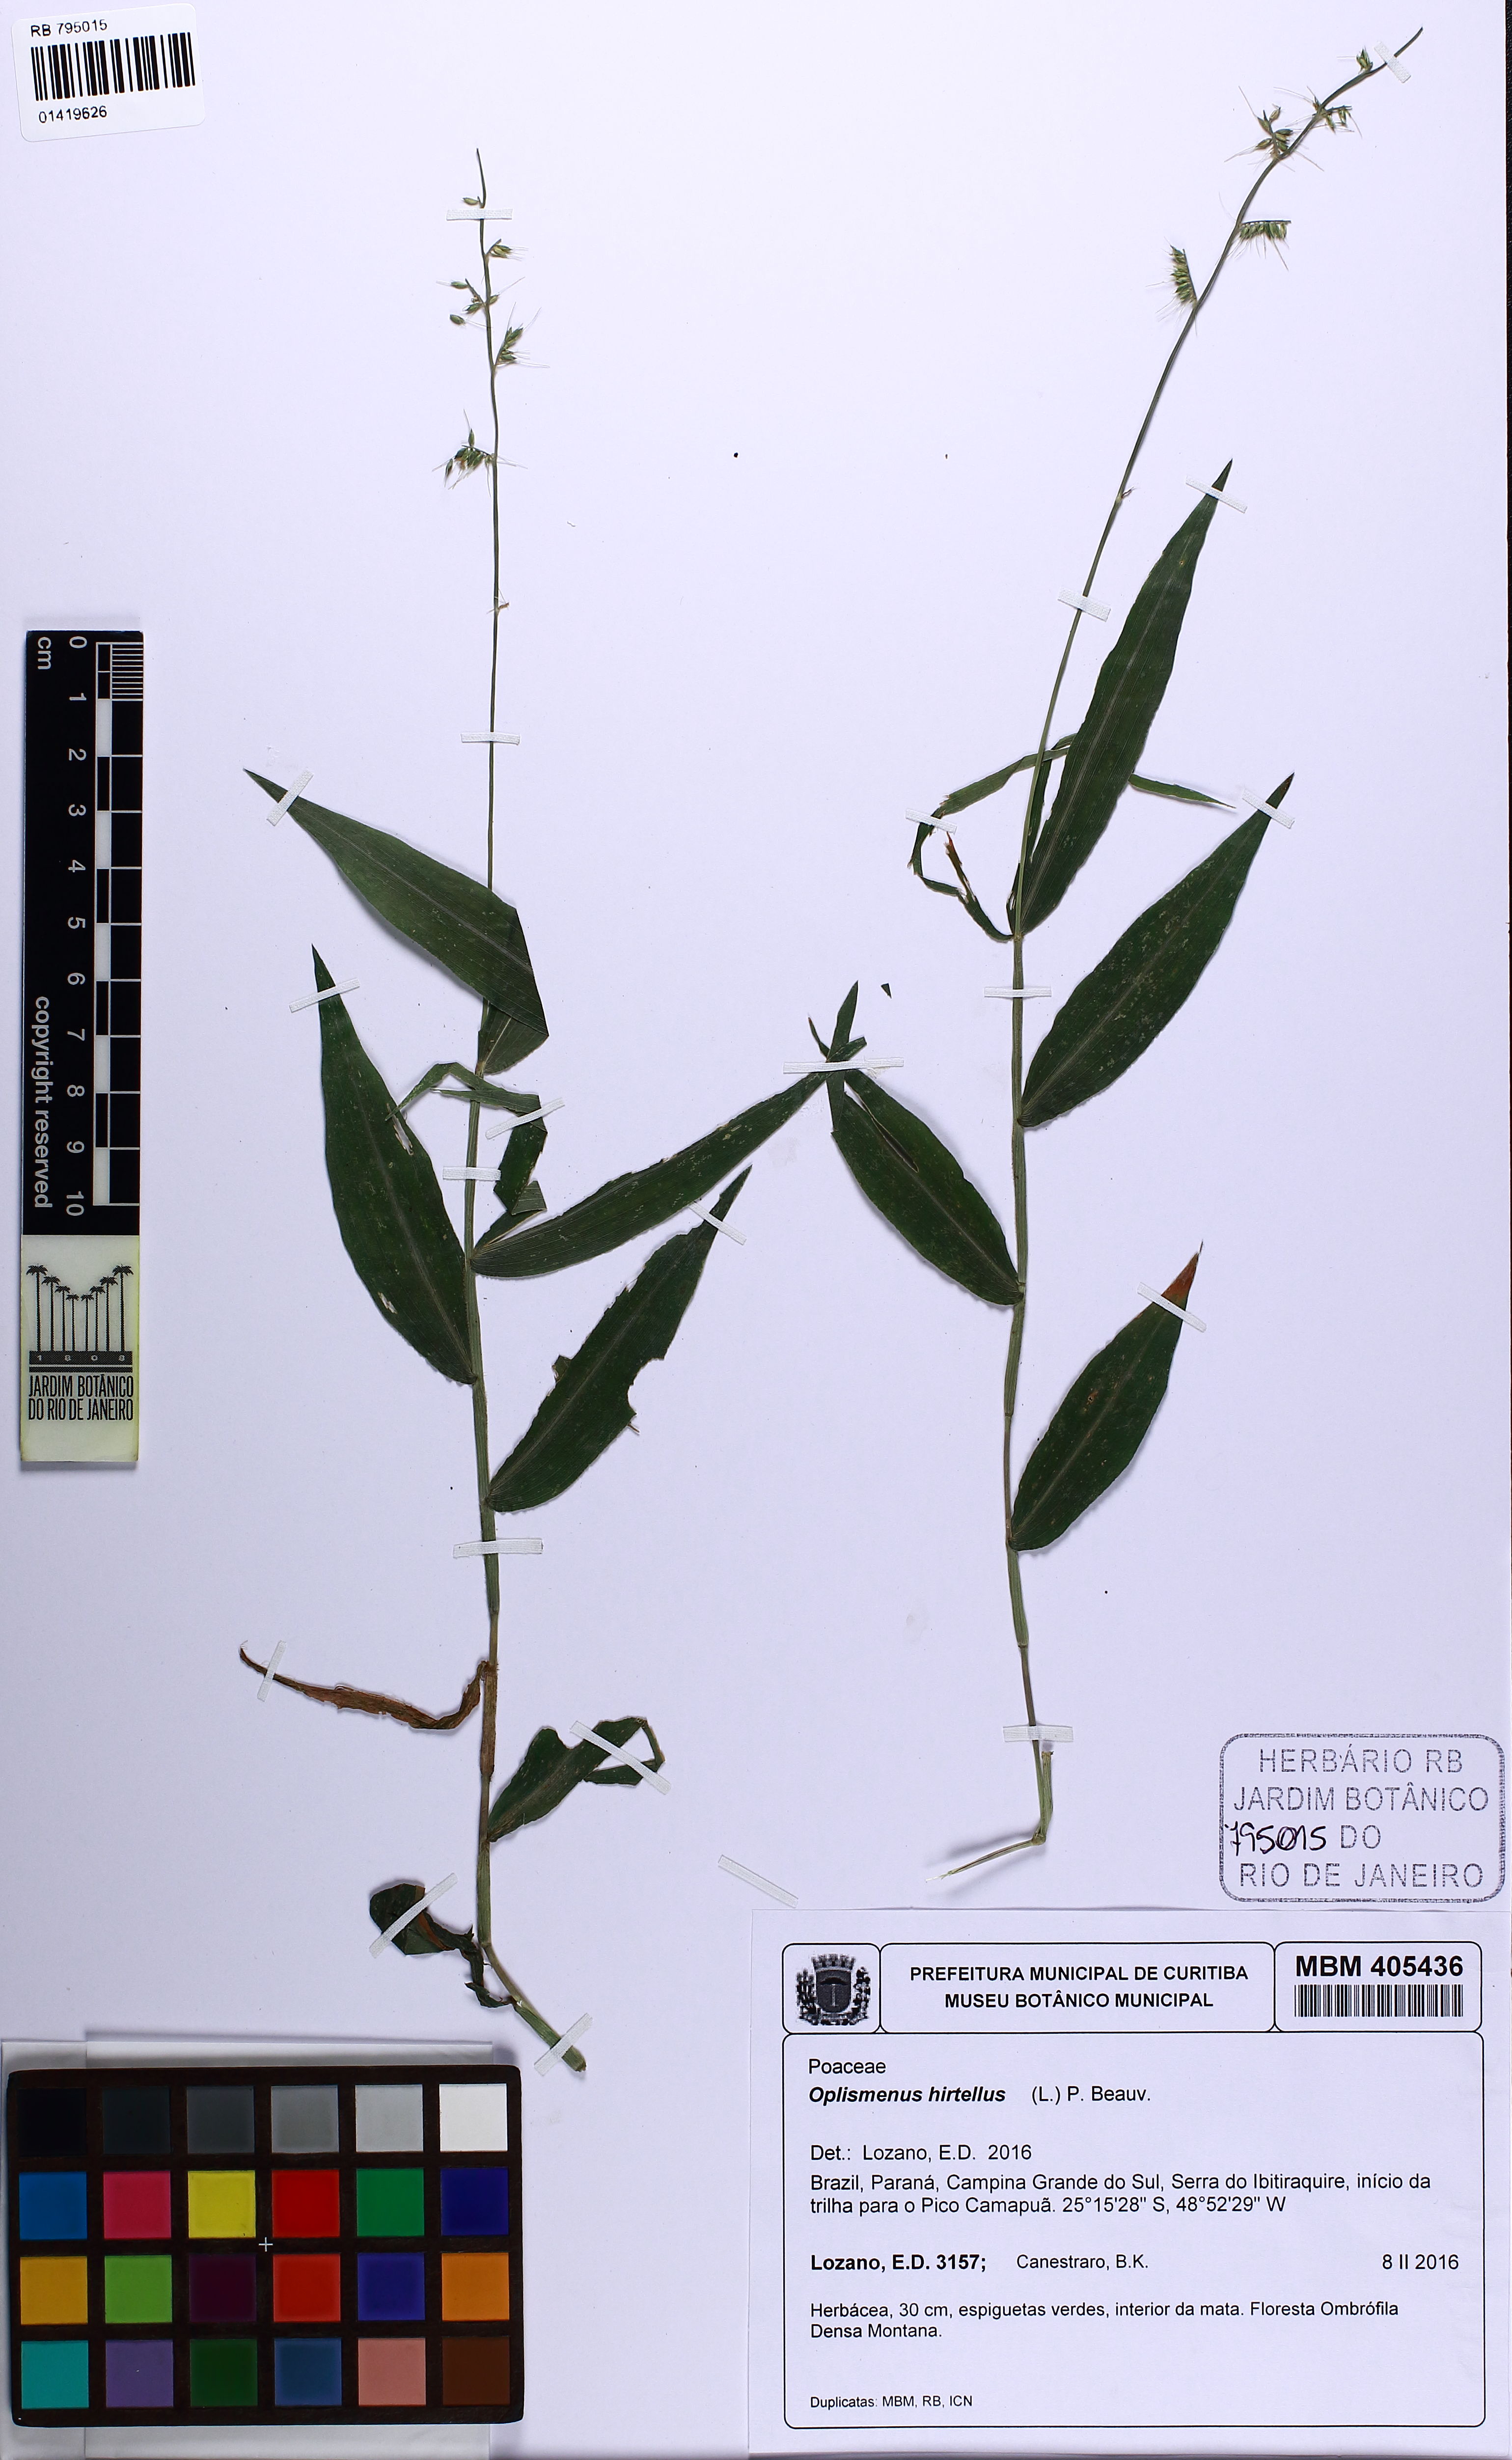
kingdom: Plantae
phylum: Tracheophyta
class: Liliopsida
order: Poales
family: Poaceae
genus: Oplismenus
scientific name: Oplismenus hirtellus
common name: Basketgrass
